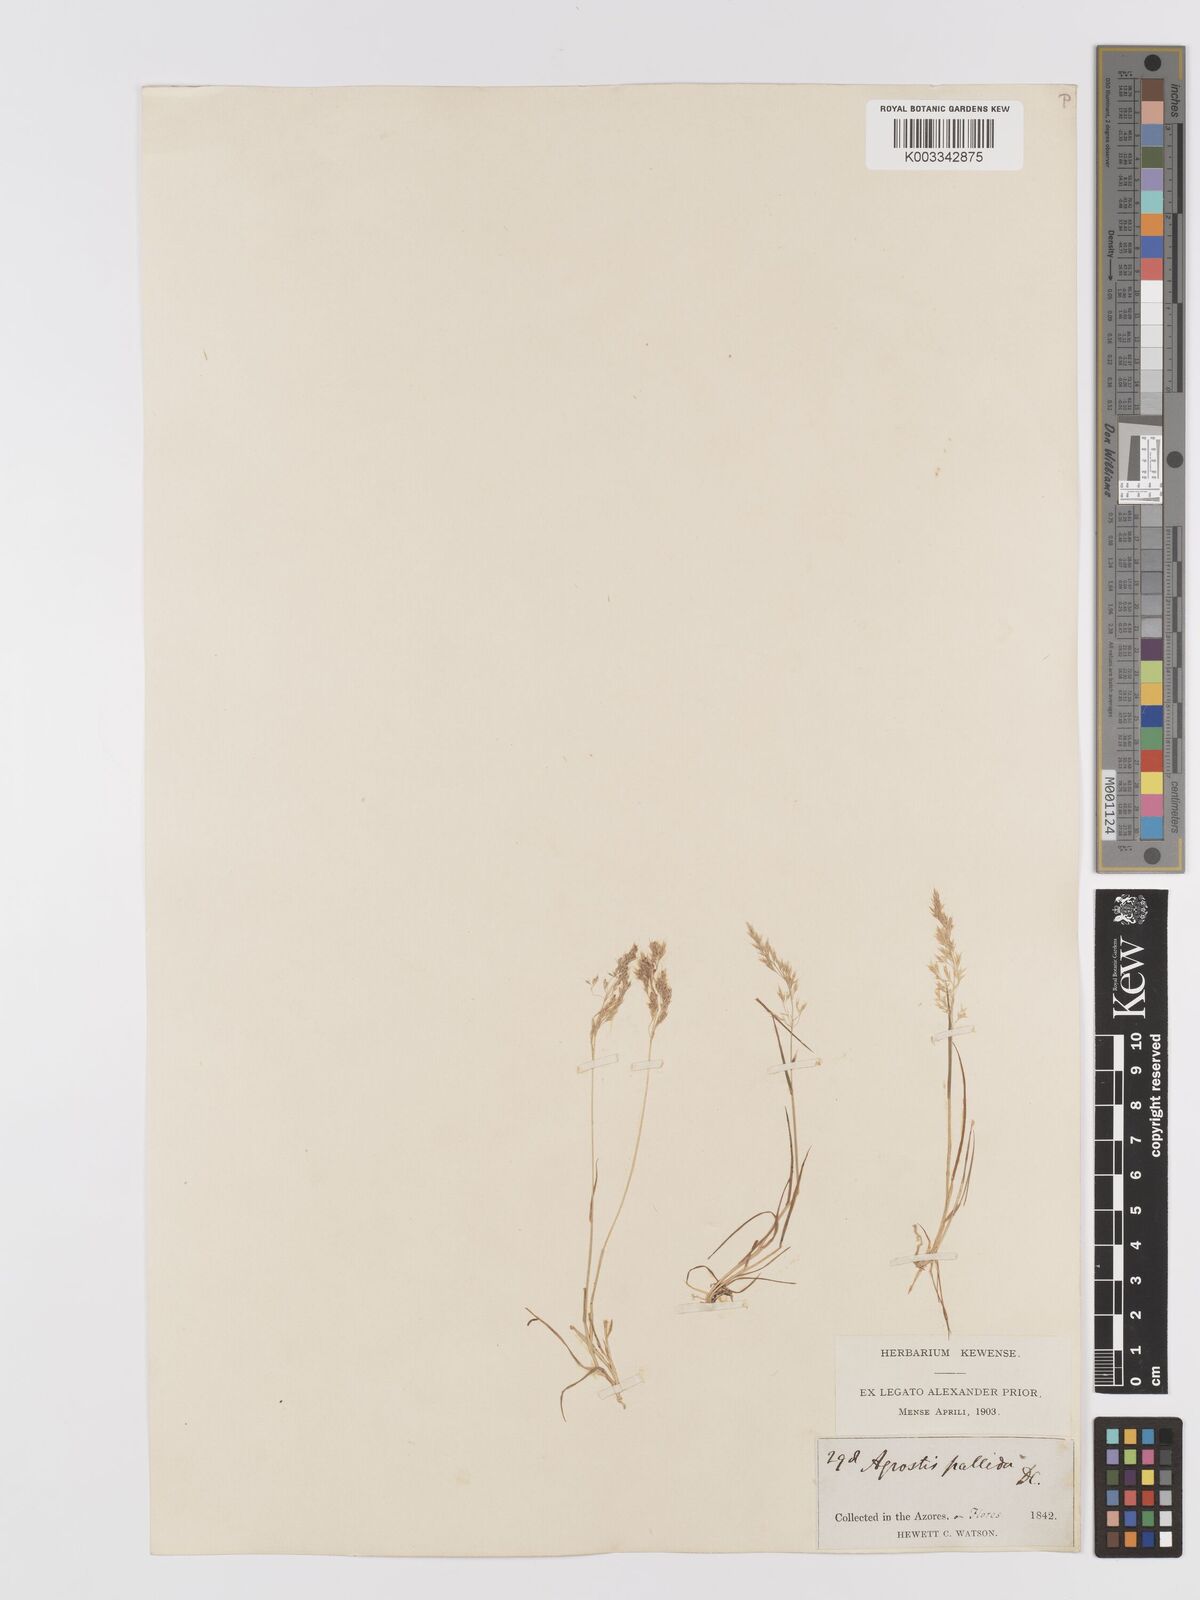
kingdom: Plantae
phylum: Tracheophyta
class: Liliopsida
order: Poales
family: Poaceae
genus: Agrostis
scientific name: Agrostis castellana
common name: Highland bent
